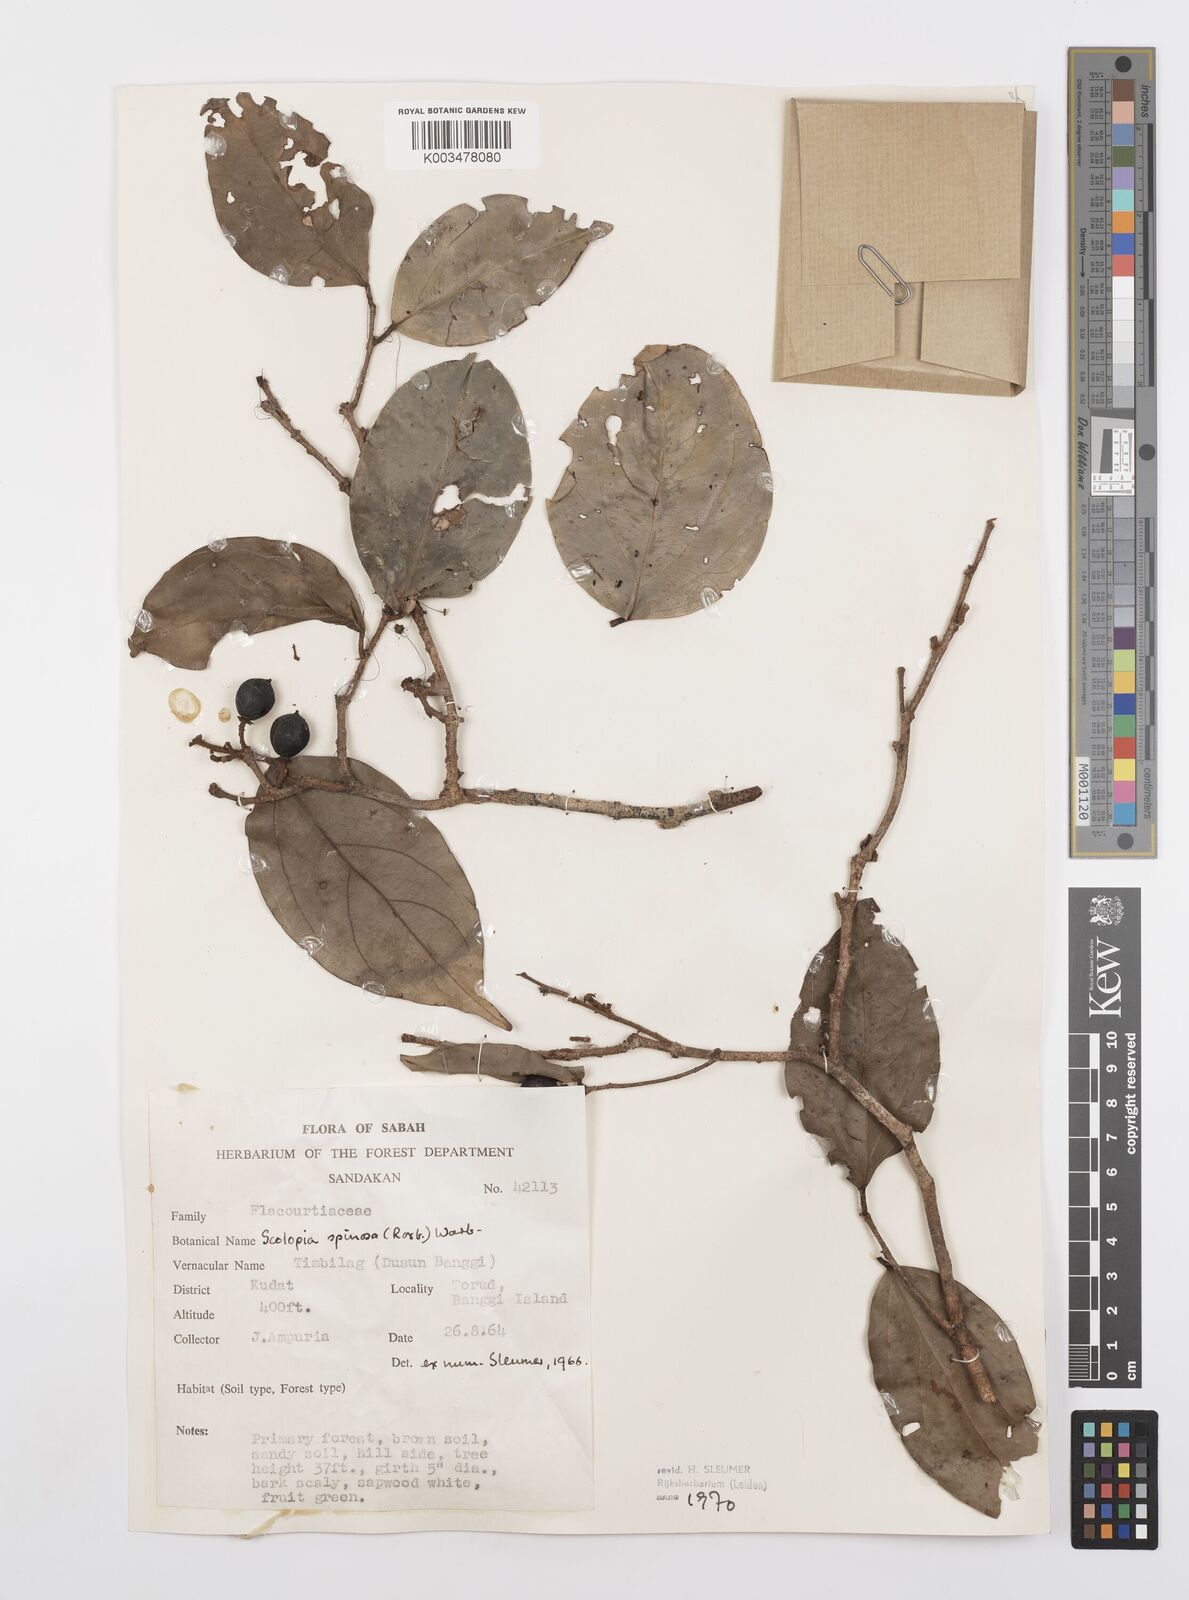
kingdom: Plantae
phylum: Tracheophyta
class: Magnoliopsida
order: Malpighiales
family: Salicaceae
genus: Scolopia
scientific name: Scolopia spinosa
